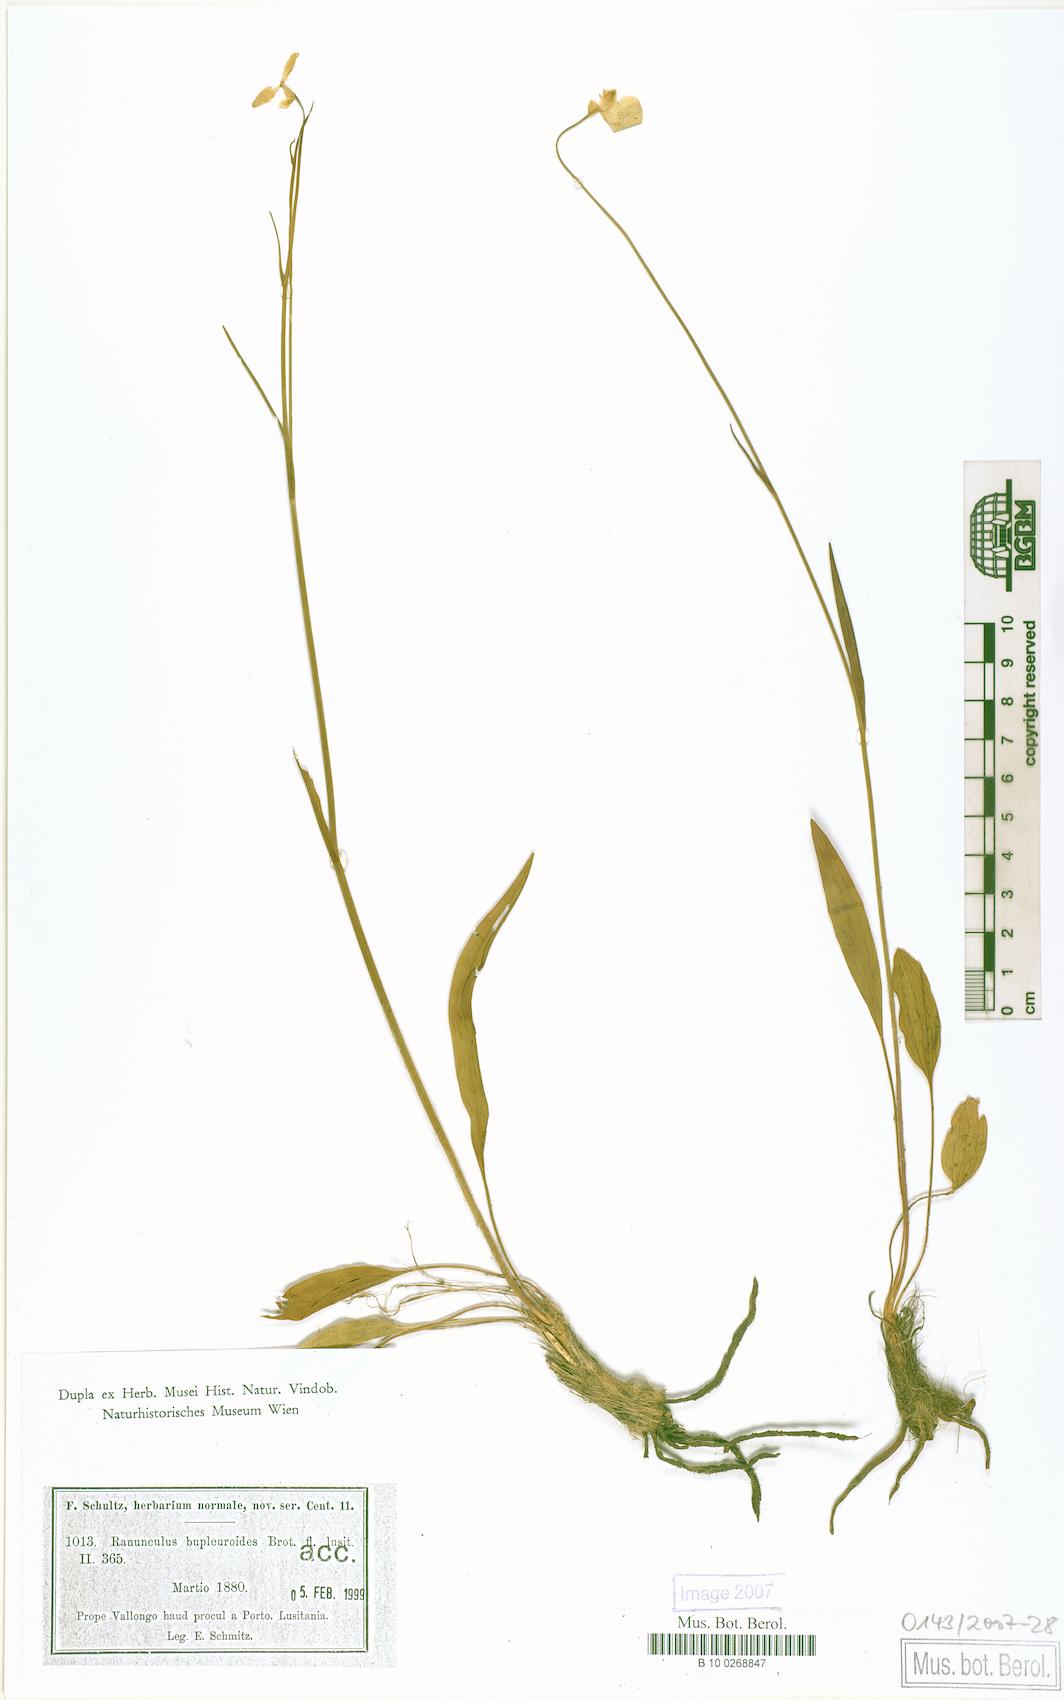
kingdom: Plantae
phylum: Tracheophyta
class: Magnoliopsida
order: Ranunculales
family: Ranunculaceae
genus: Ranunculus
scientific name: Ranunculus bupleuroides
